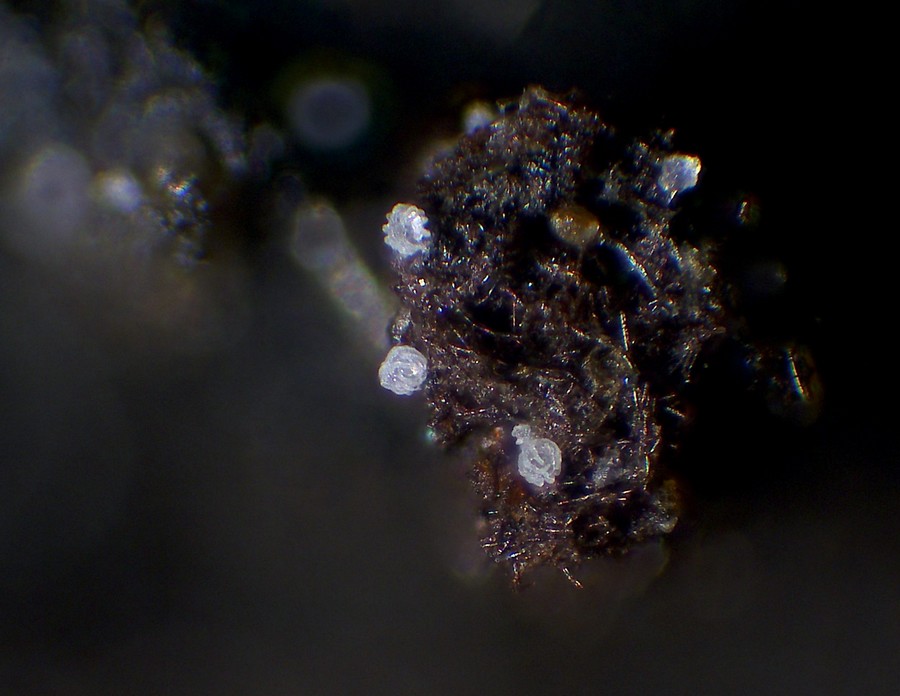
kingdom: Fungi
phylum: Basidiomycota
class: Agaricomycetes
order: Agaricales
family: Niaceae
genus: Peyronelina
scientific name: Peyronelina glomerulata
